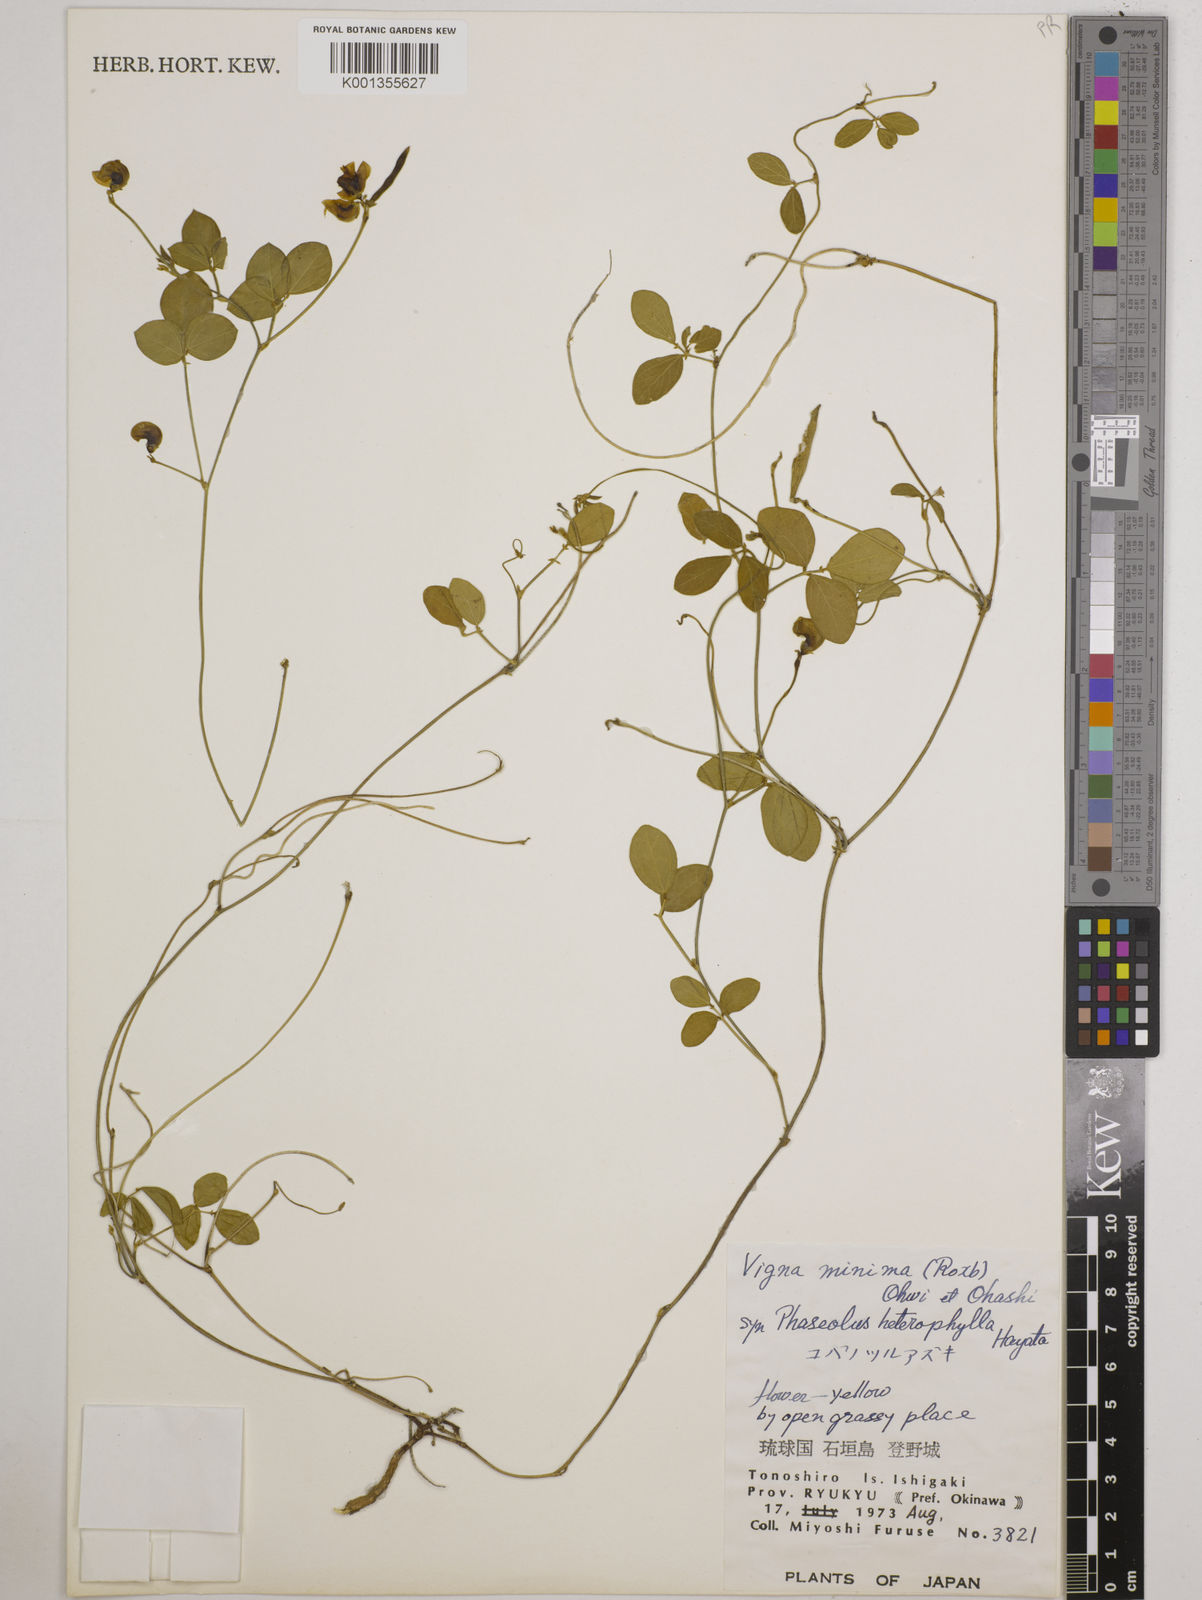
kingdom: Plantae
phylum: Tracheophyta
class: Magnoliopsida
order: Fabales
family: Fabaceae
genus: Vigna
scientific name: Vigna minima
